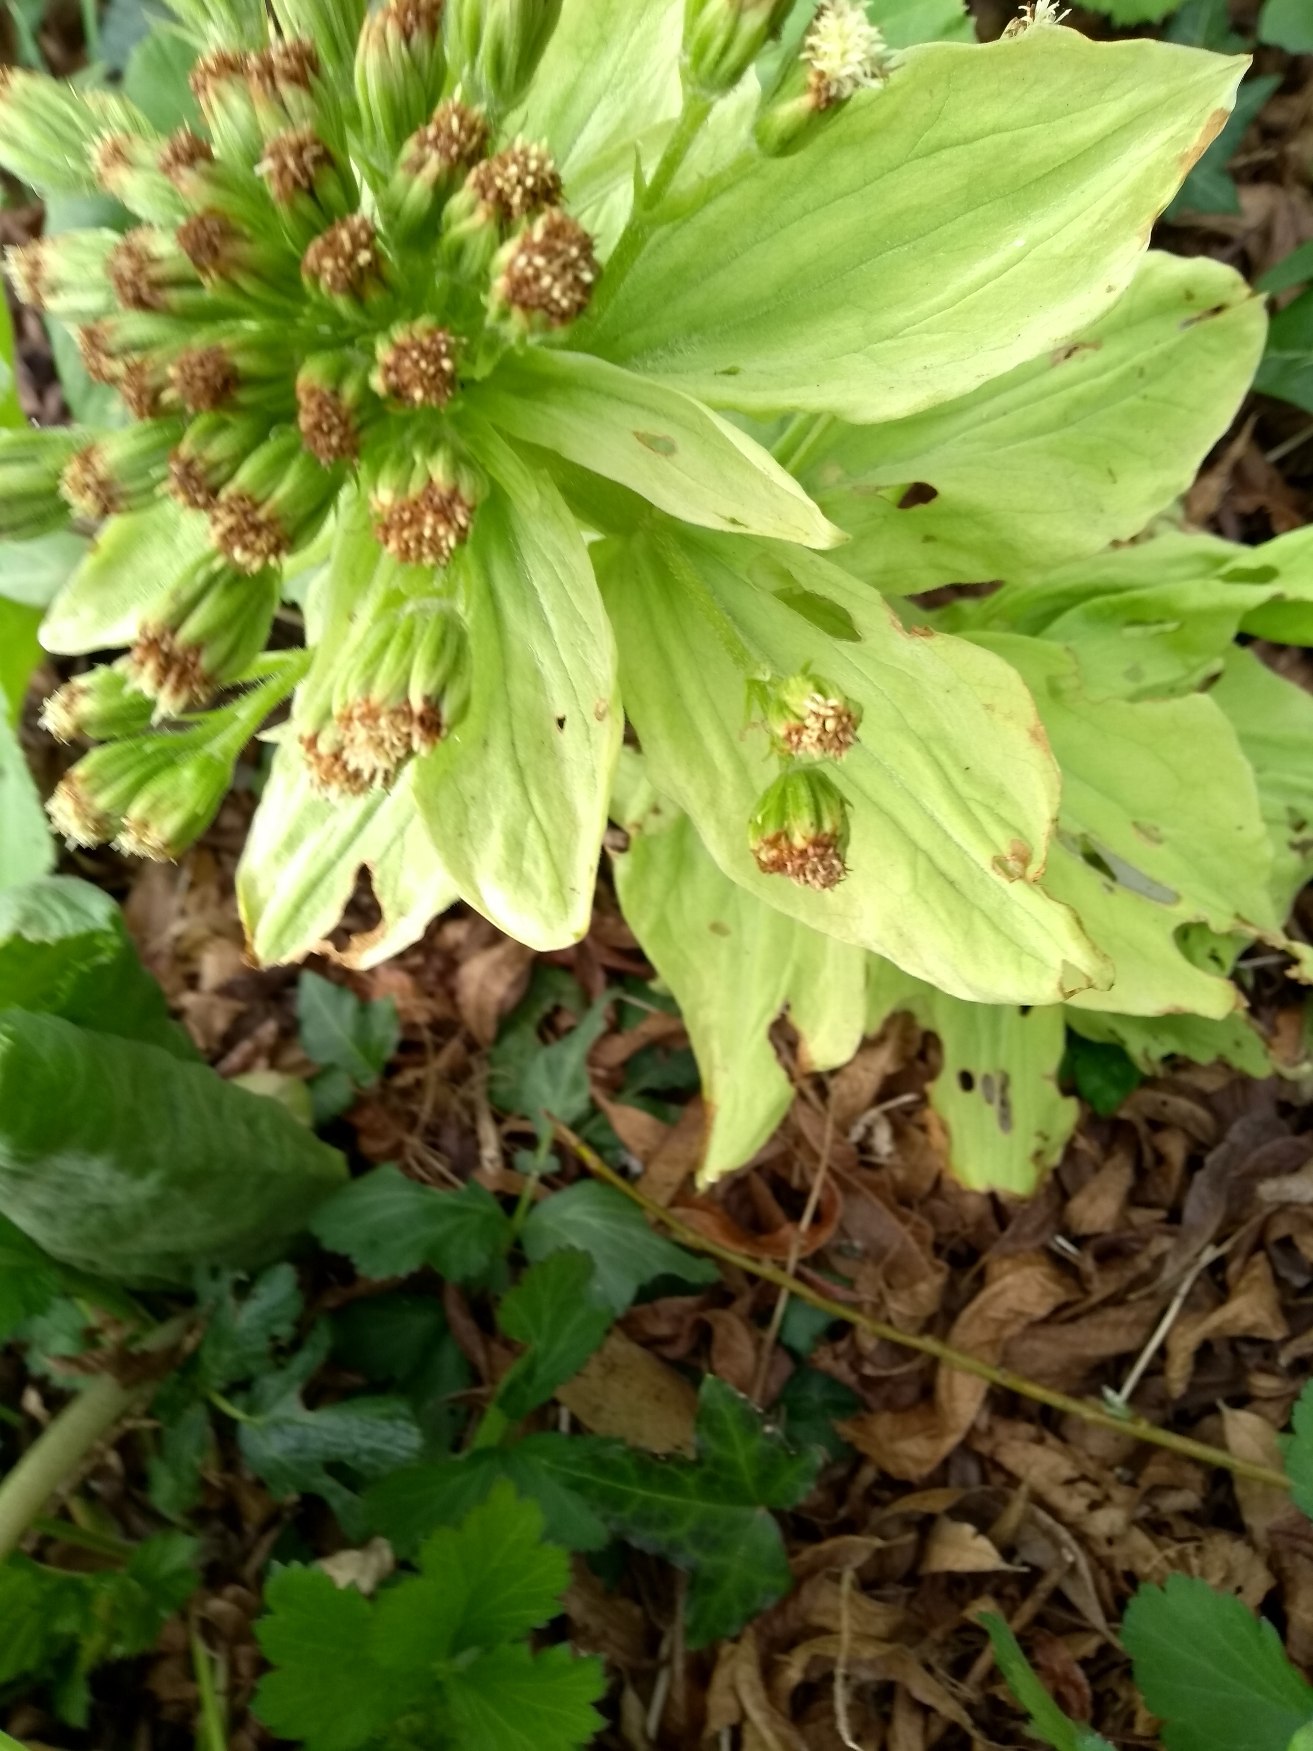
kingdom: Plantae
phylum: Tracheophyta
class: Magnoliopsida
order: Asterales
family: Asteraceae
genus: Petasites
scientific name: Petasites japonicus
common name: Japansk hestehov
